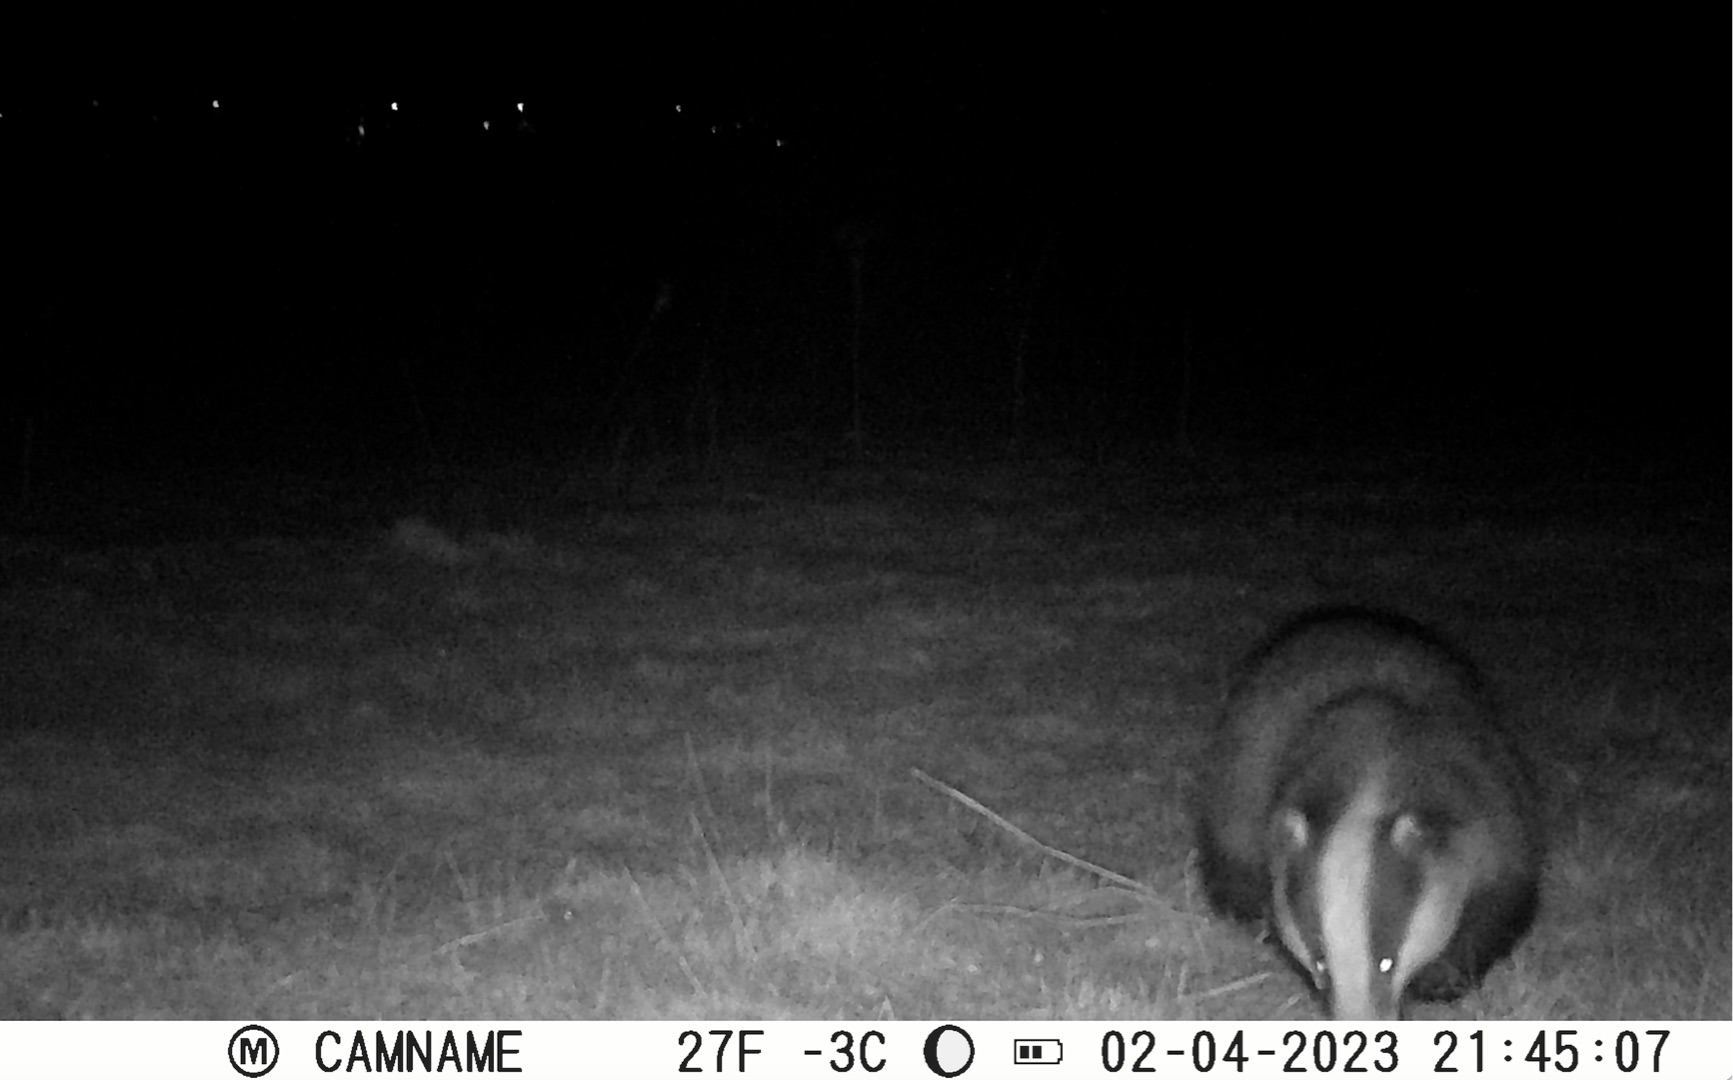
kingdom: Animalia
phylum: Chordata
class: Mammalia
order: Carnivora
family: Mustelidae
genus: Meles
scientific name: Meles meles
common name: Grævling
